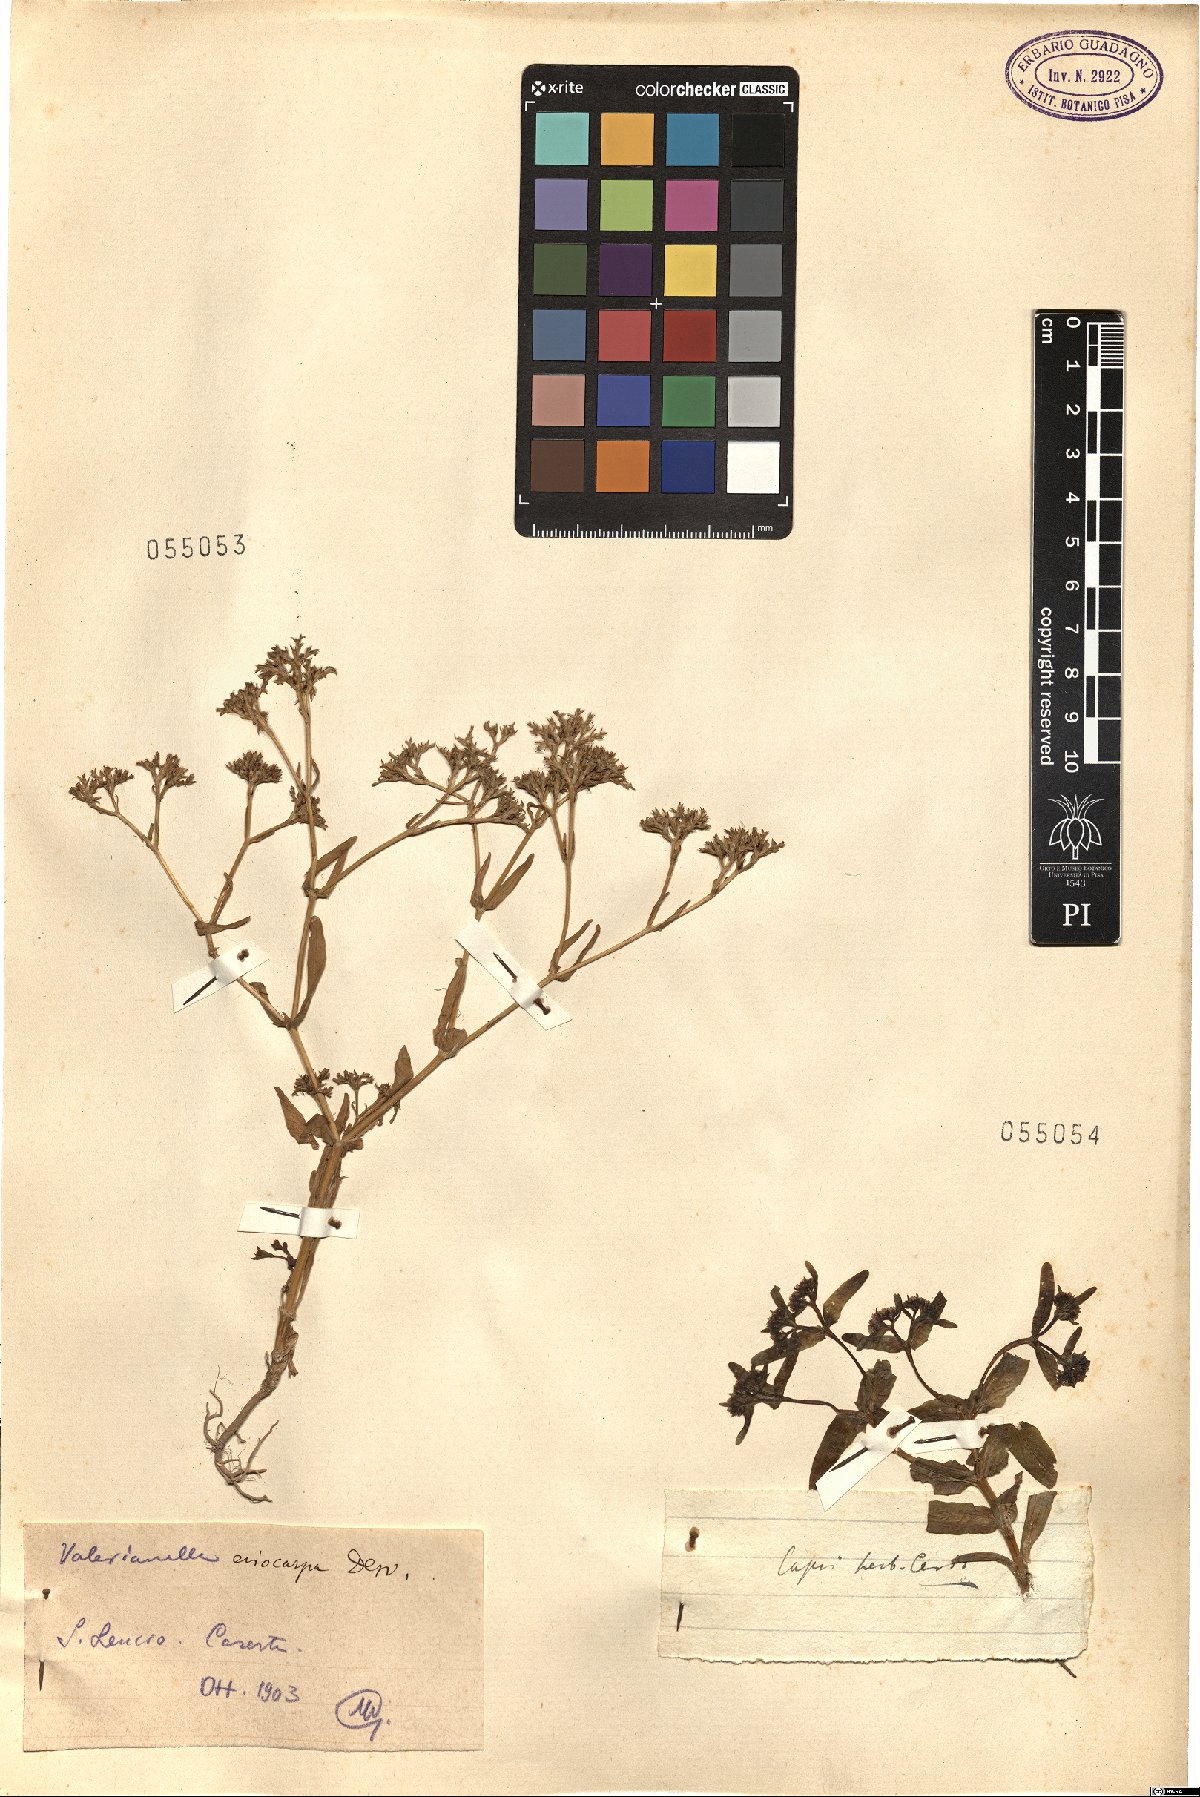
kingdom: Plantae
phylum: Tracheophyta
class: Magnoliopsida
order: Dipsacales
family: Caprifoliaceae
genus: Valerianella
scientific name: Valerianella eriocarpa
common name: Hairy-fruited cornsalad
